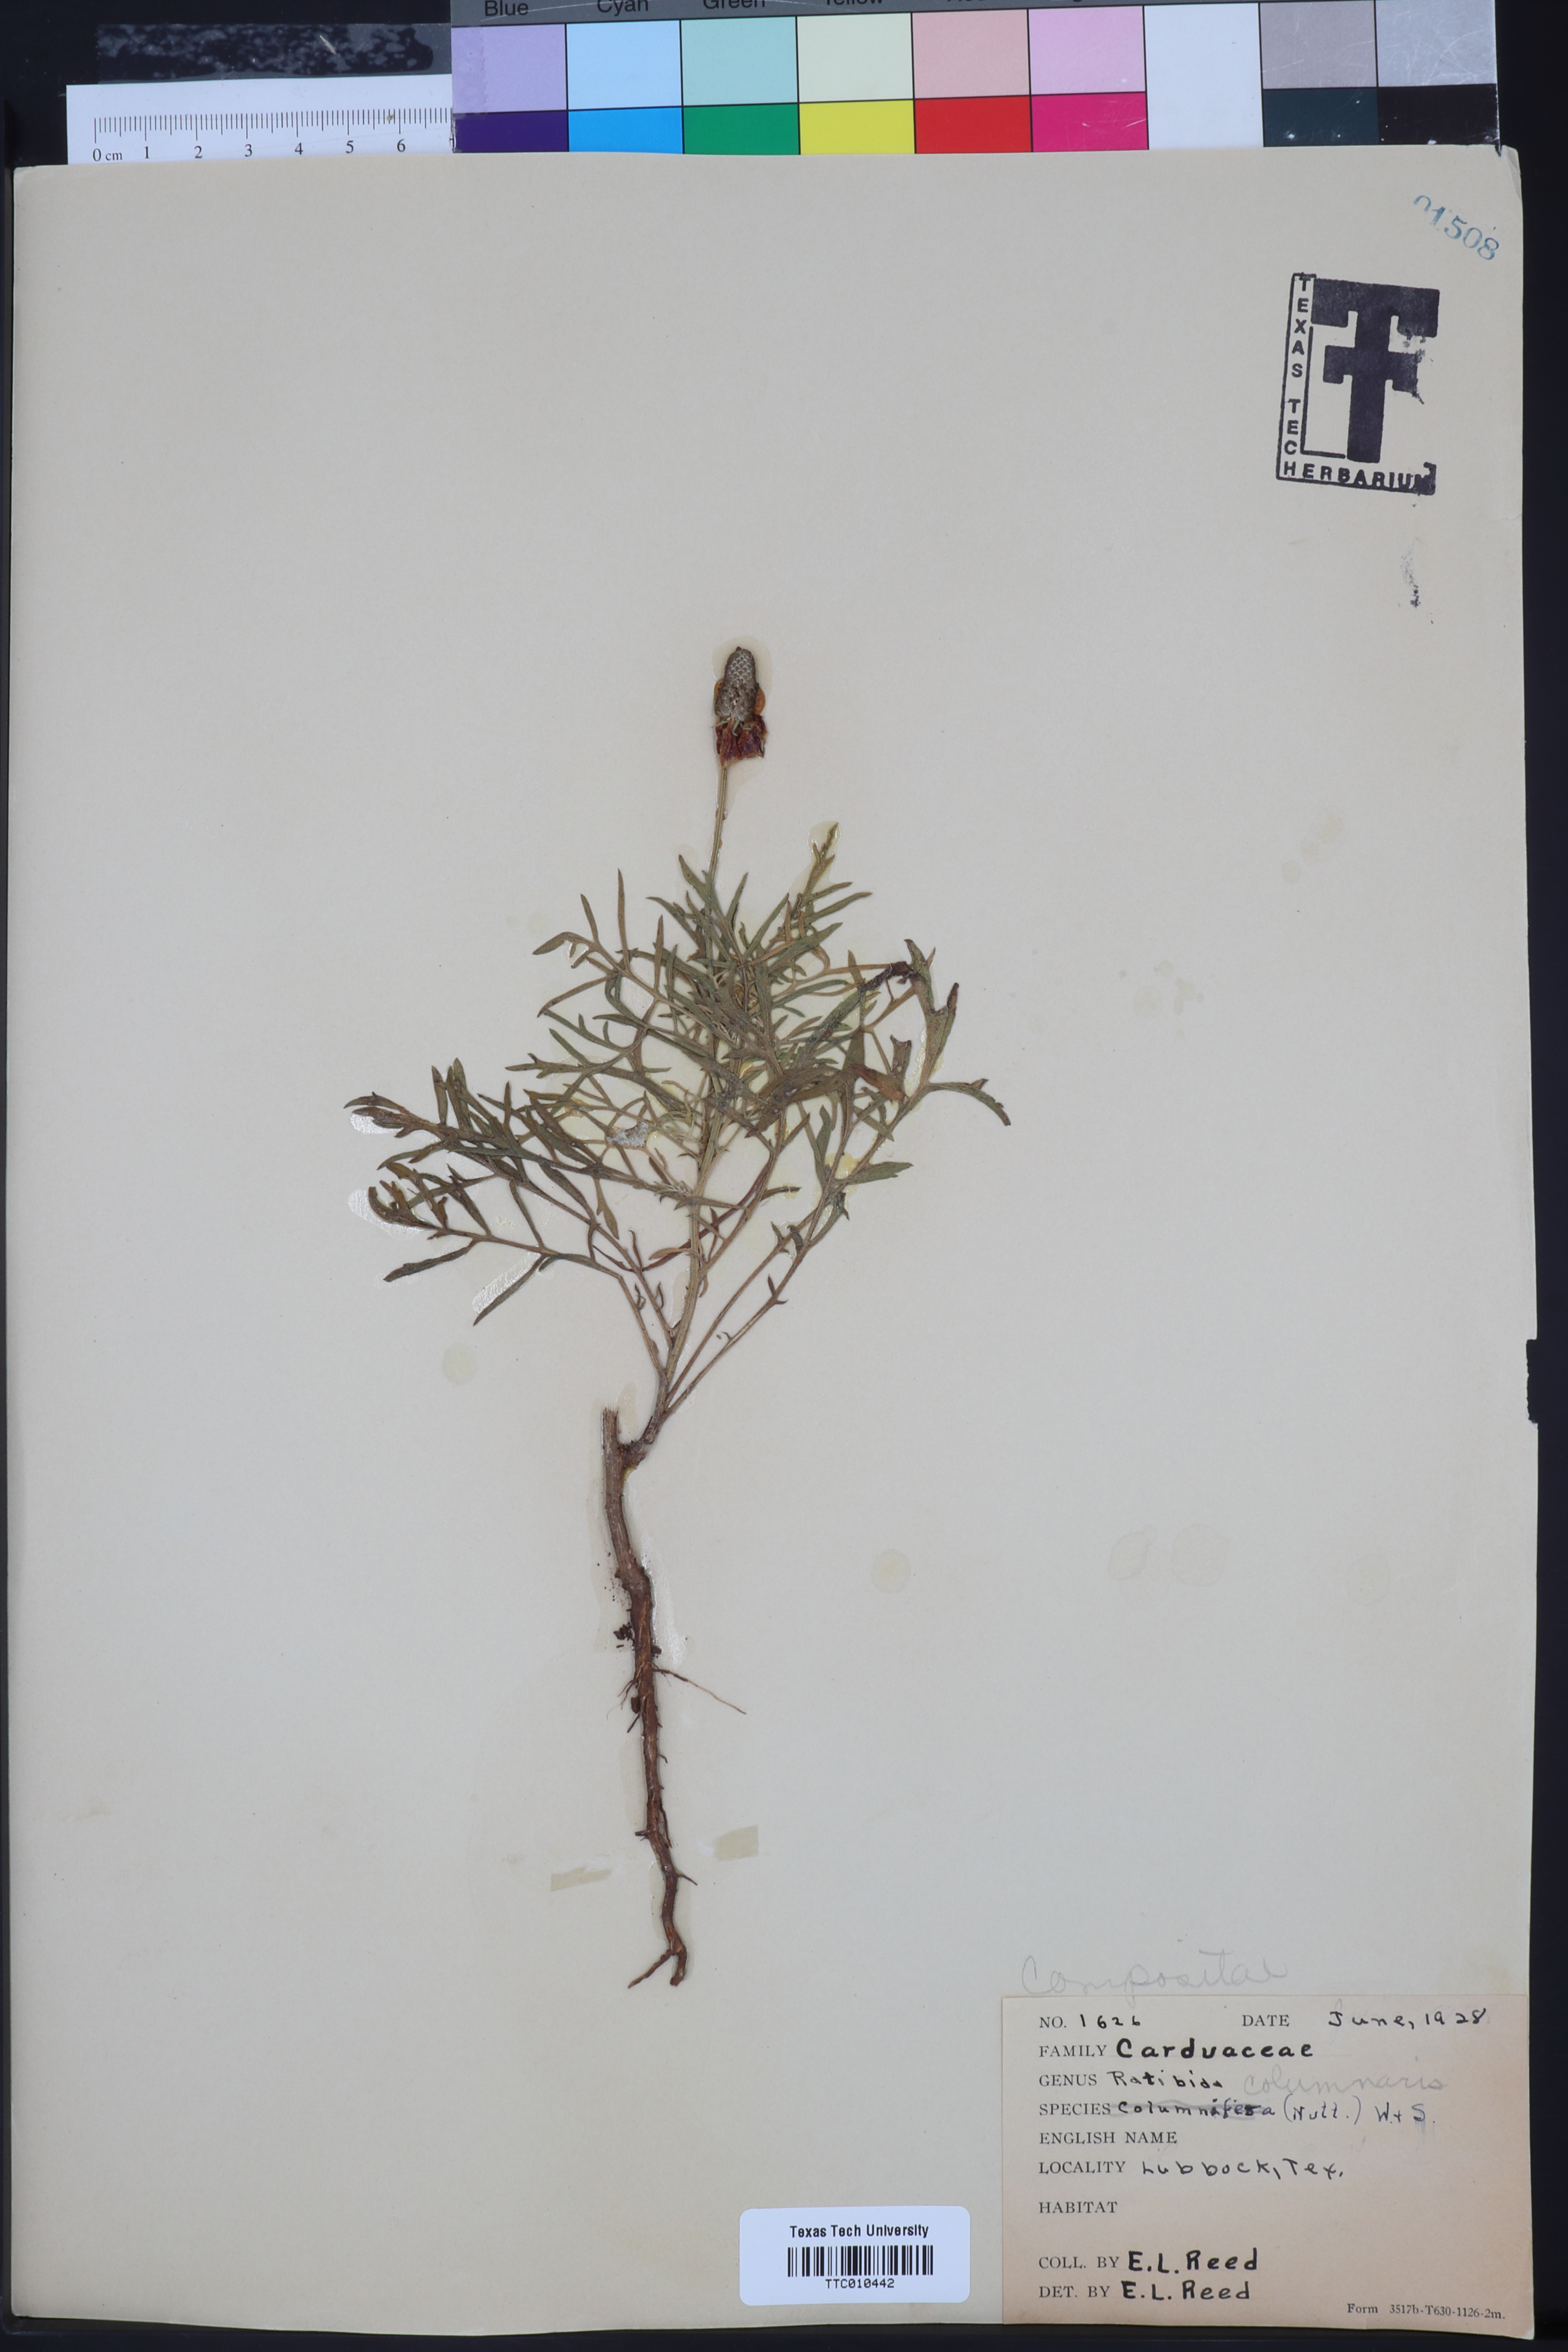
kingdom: Plantae
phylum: Tracheophyta
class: Magnoliopsida
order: Asterales
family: Asteraceae
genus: Ratibida
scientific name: Ratibida columnifera
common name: Prairie coneflower
